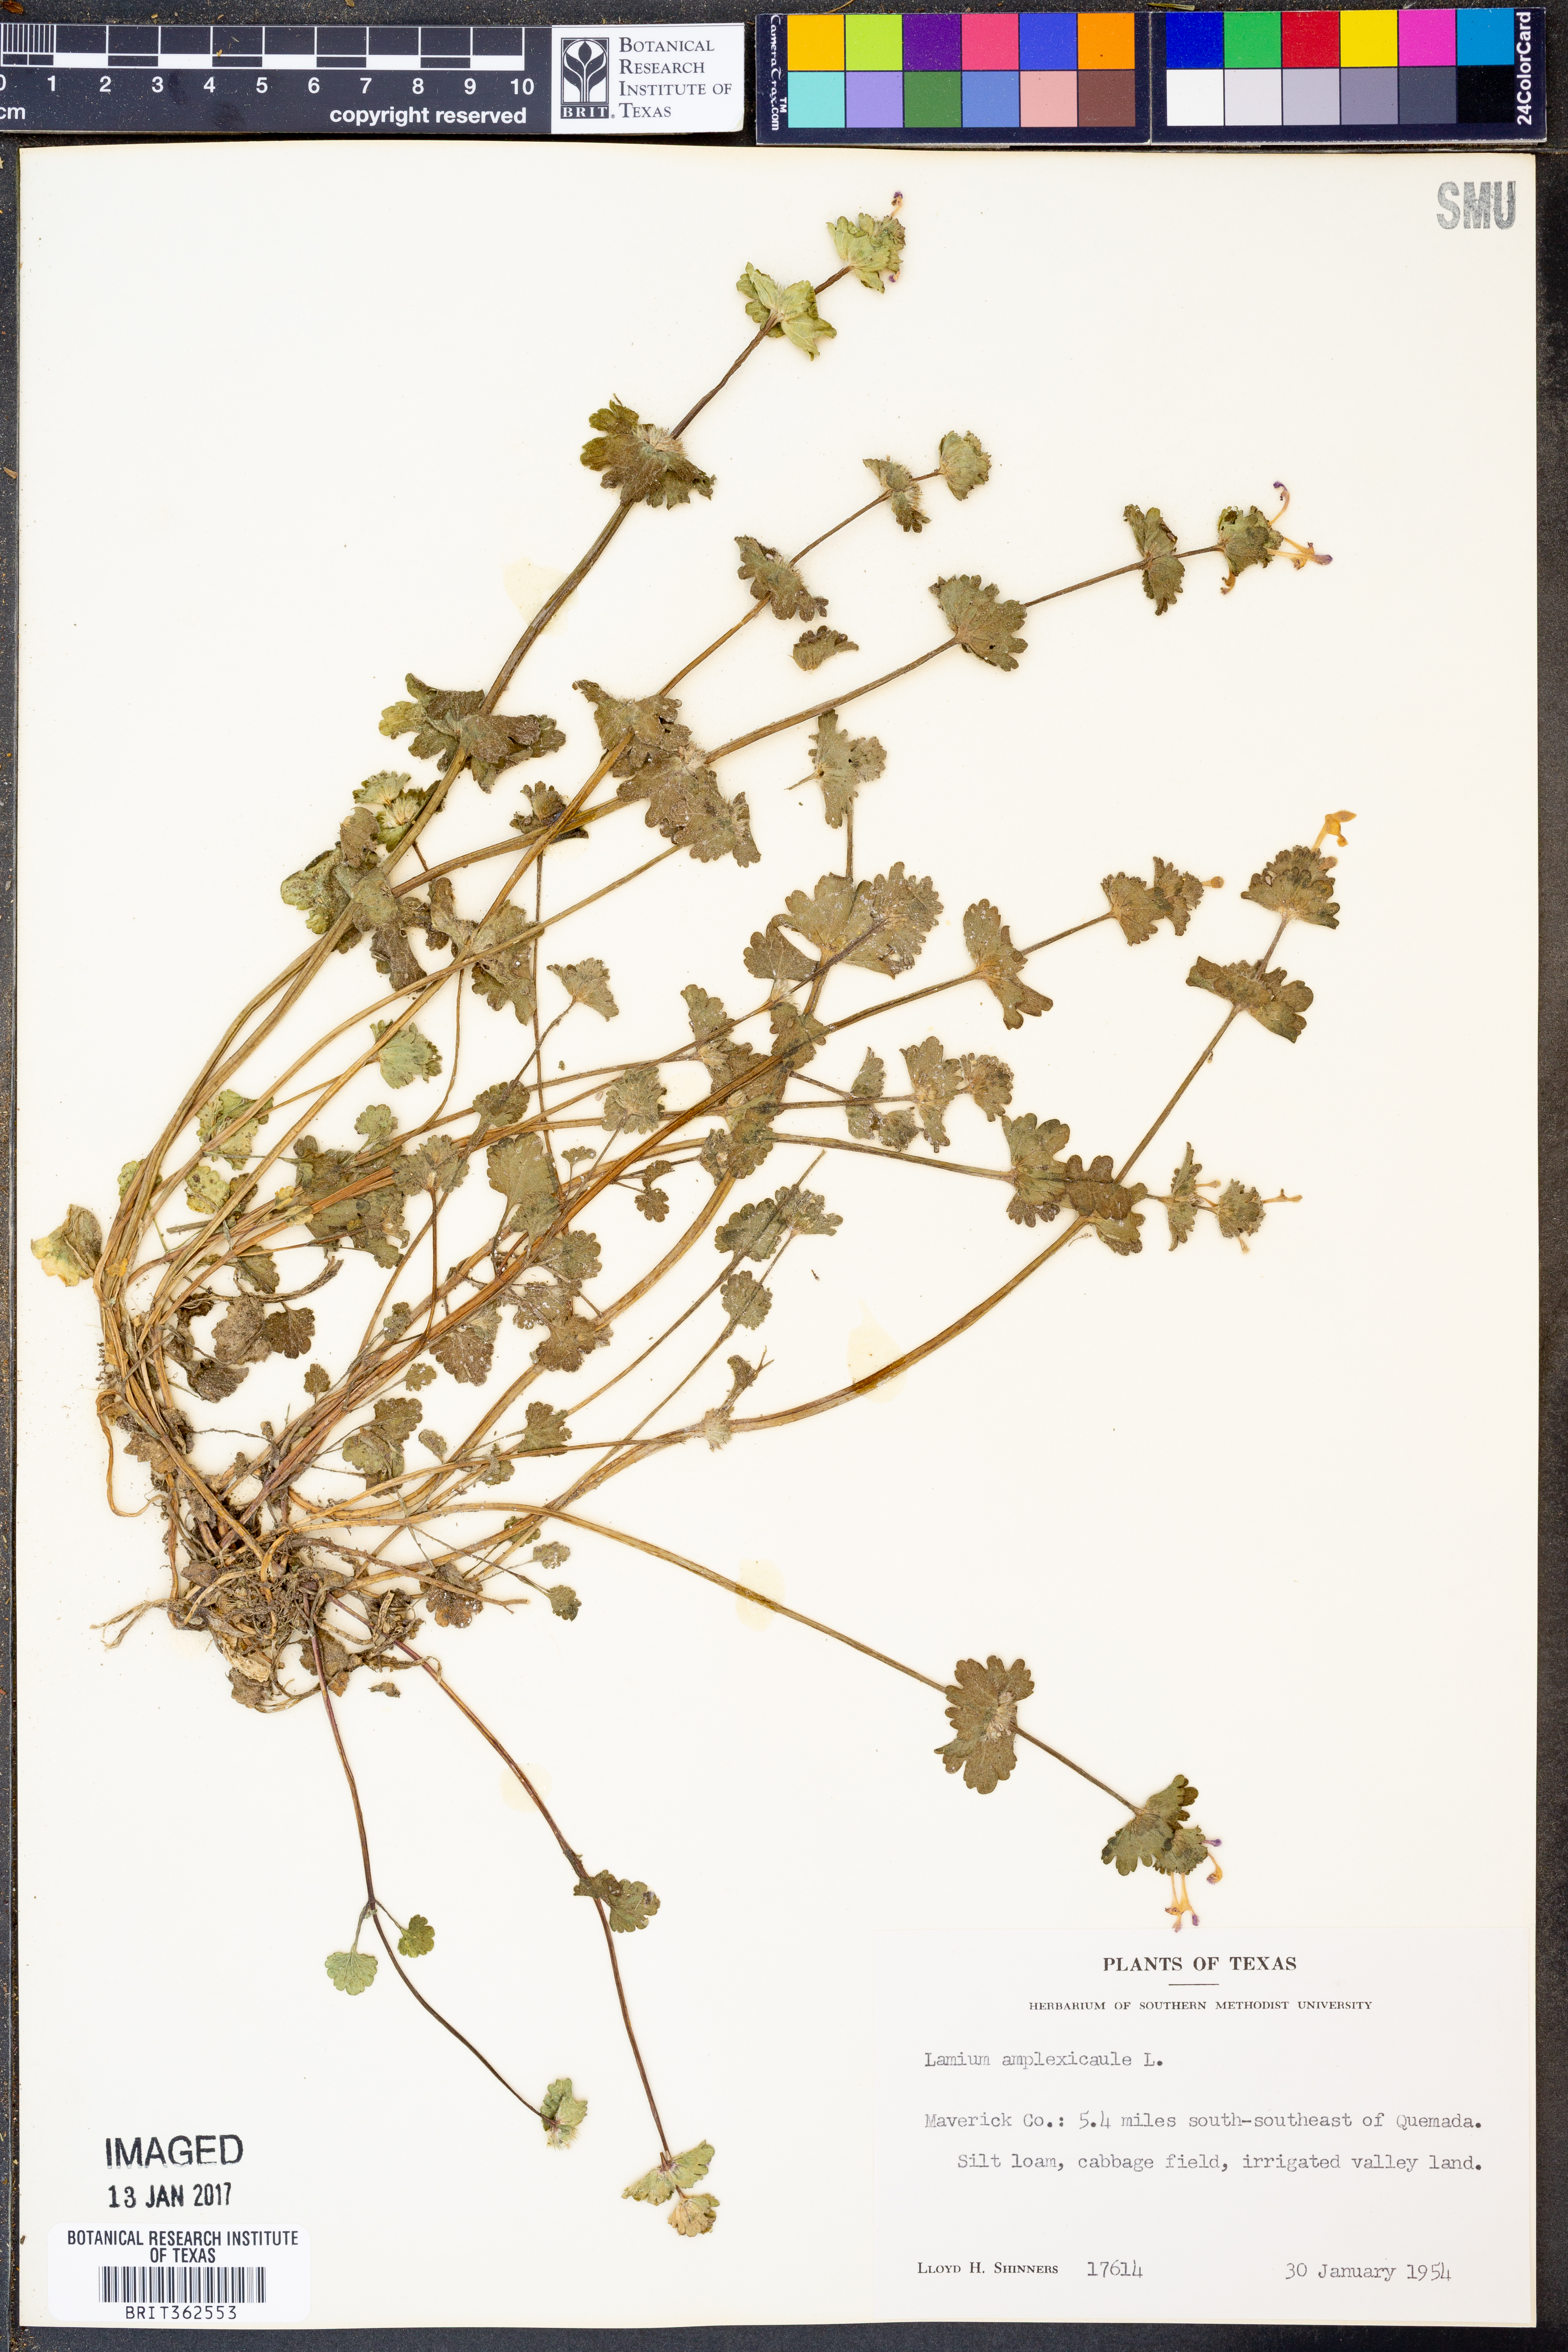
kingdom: Plantae
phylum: Tracheophyta
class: Magnoliopsida
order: Lamiales
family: Lamiaceae
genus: Lamium
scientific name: Lamium amplexicaule
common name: Henbit dead-nettle
